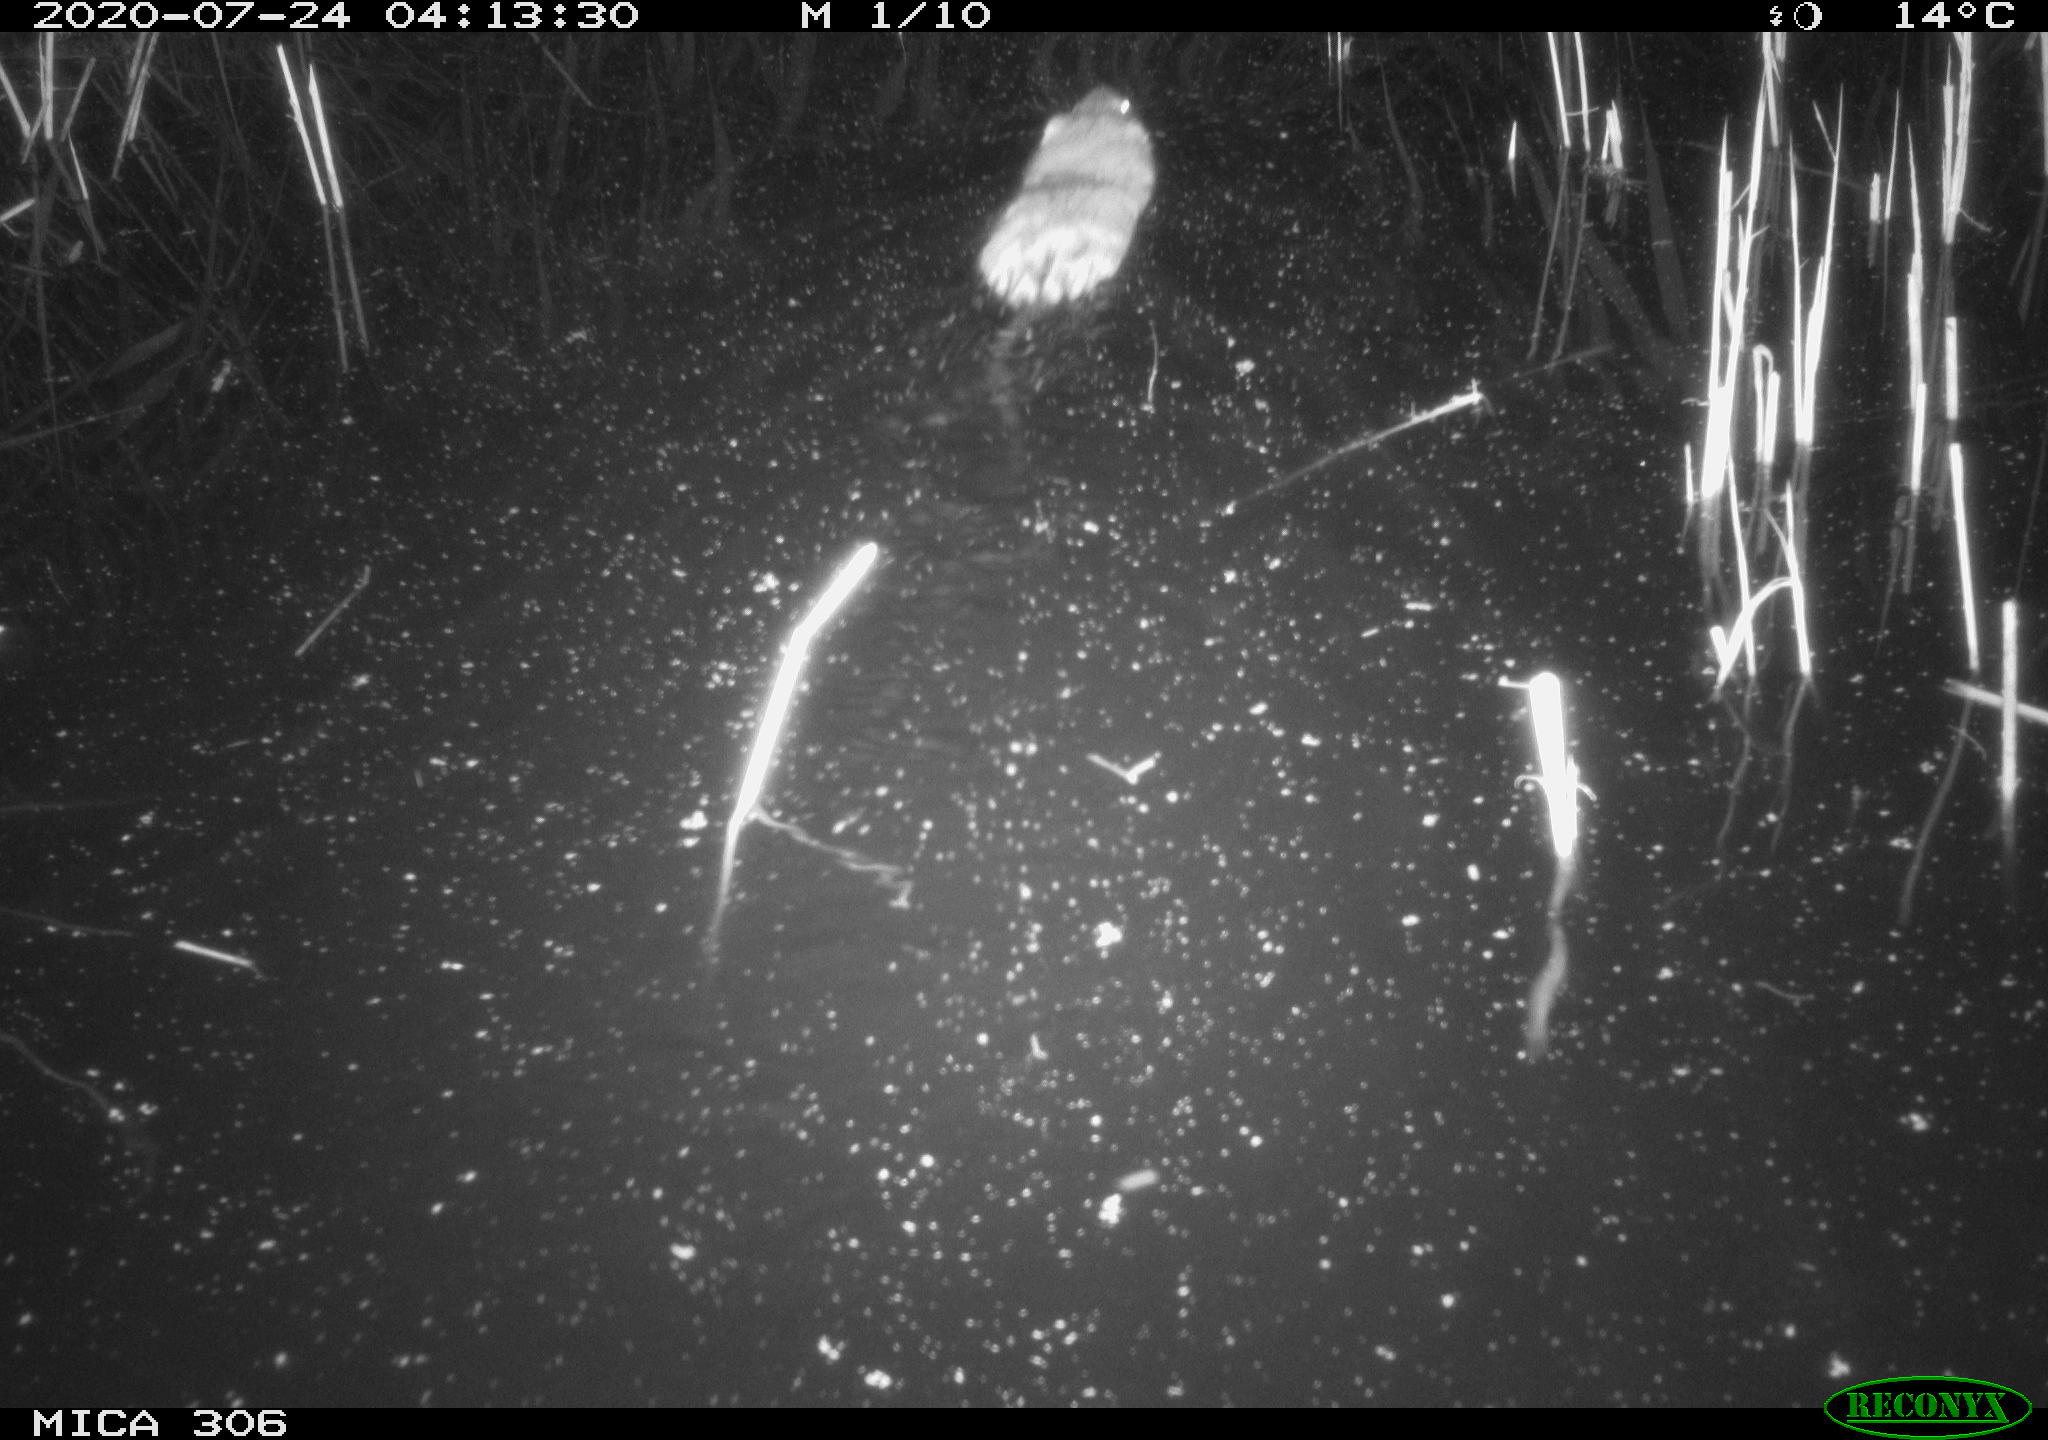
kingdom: Animalia
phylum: Chordata
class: Mammalia
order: Rodentia
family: Cricetidae
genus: Ondatra
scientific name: Ondatra zibethicus
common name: Muskrat
